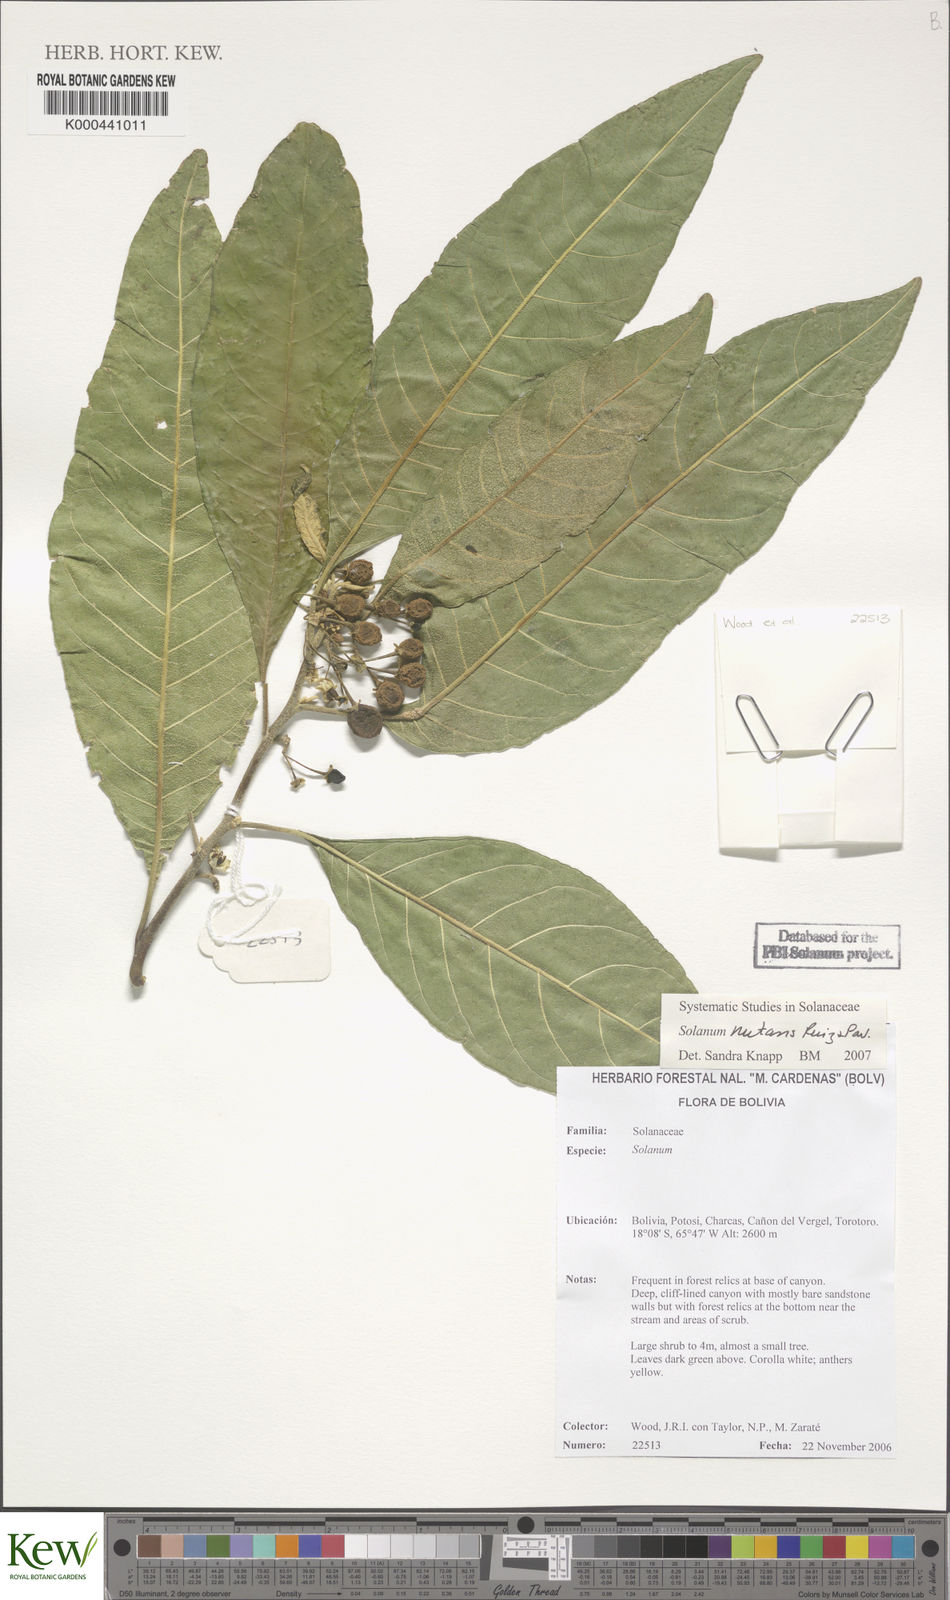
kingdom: Plantae
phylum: Tracheophyta
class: Magnoliopsida
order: Solanales
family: Solanaceae
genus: Solanum
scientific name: Solanum nutans
